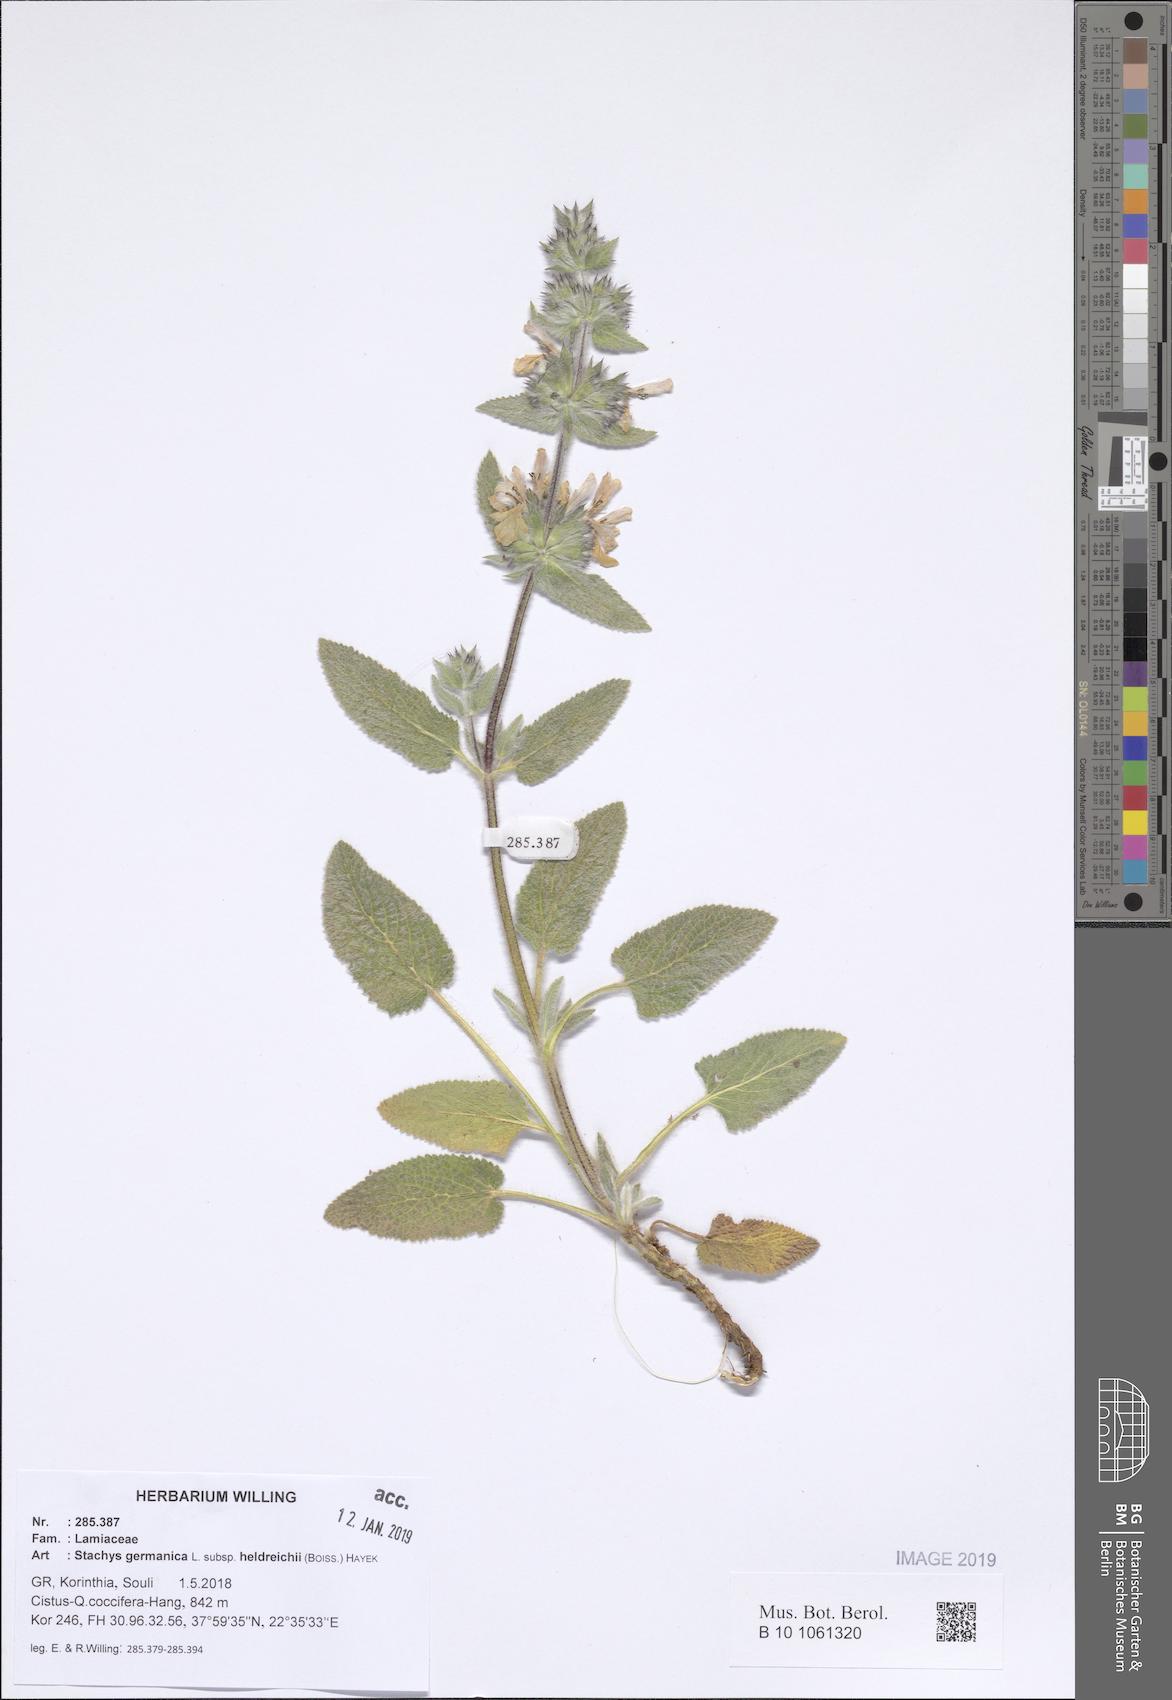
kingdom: Plantae
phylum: Tracheophyta
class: Magnoliopsida
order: Lamiales
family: Lamiaceae
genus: Stachys
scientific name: Stachys germanica
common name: Downy woundwort
